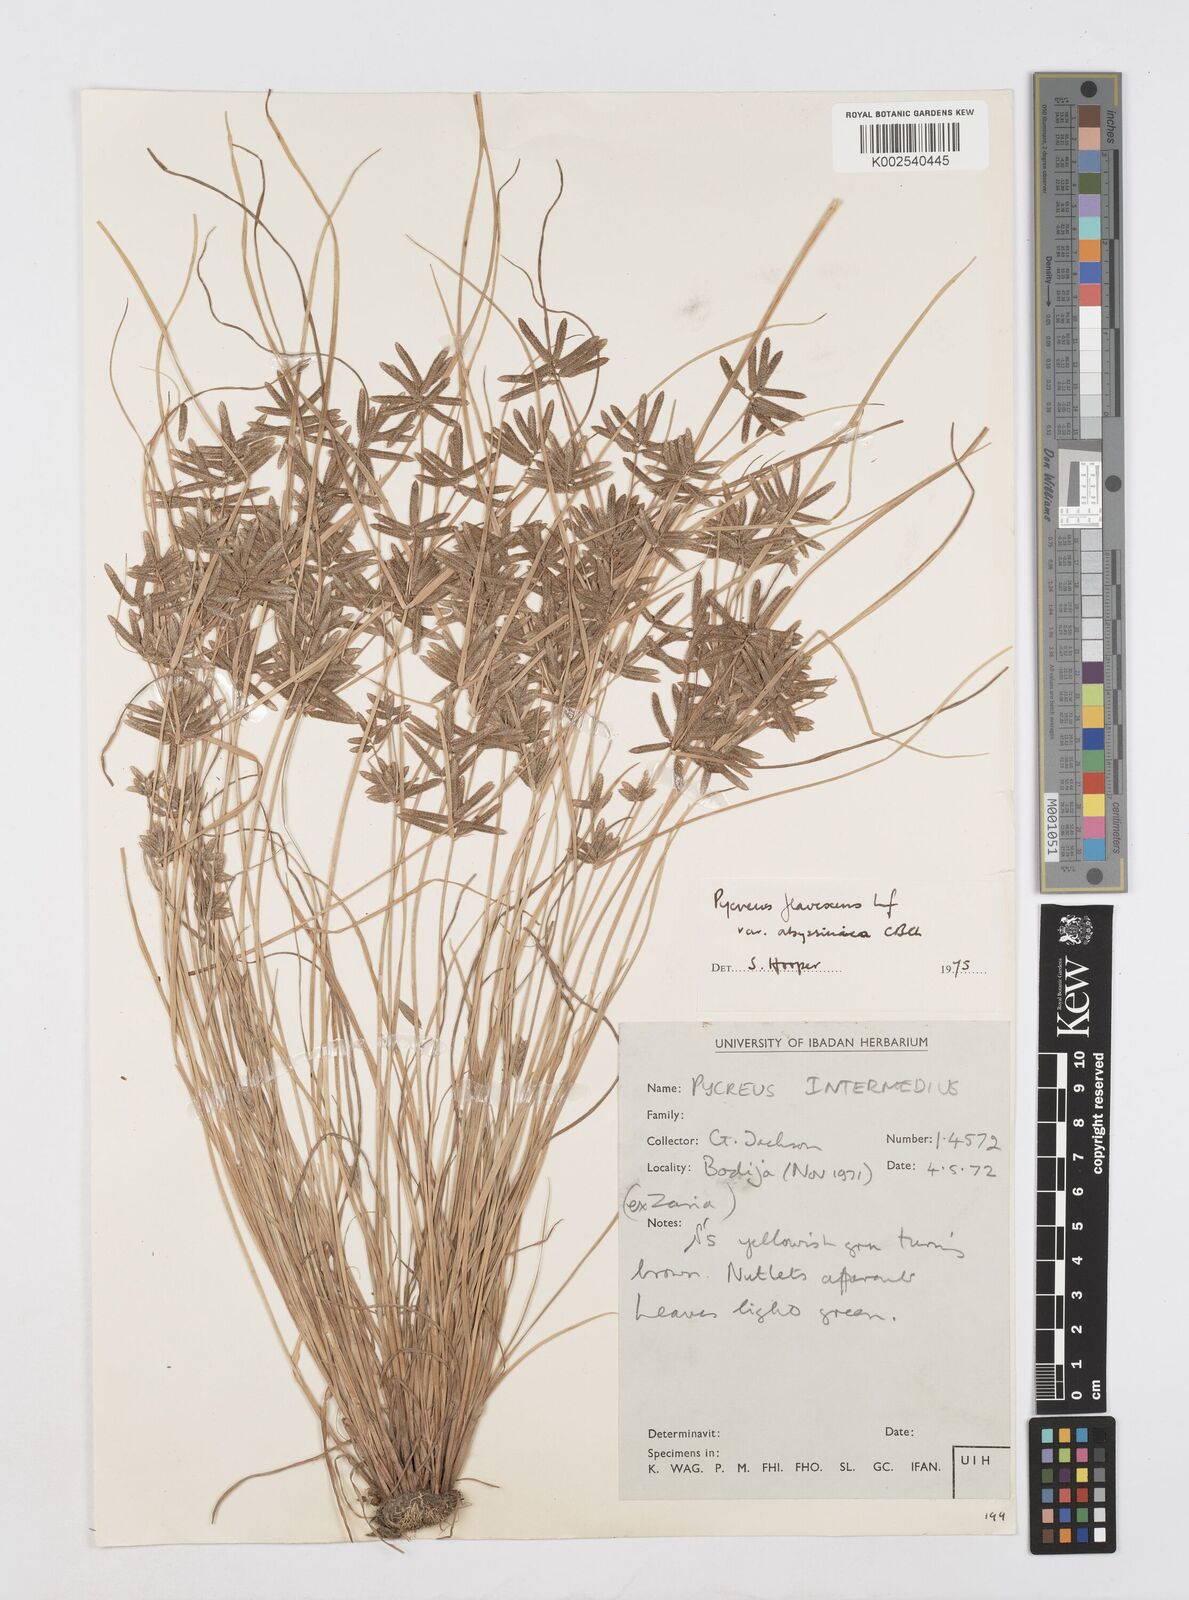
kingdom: Plantae
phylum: Tracheophyta
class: Liliopsida
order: Poales
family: Cyperaceae
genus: Cyperus
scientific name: Cyperus flavescens
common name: Yellow galingale
